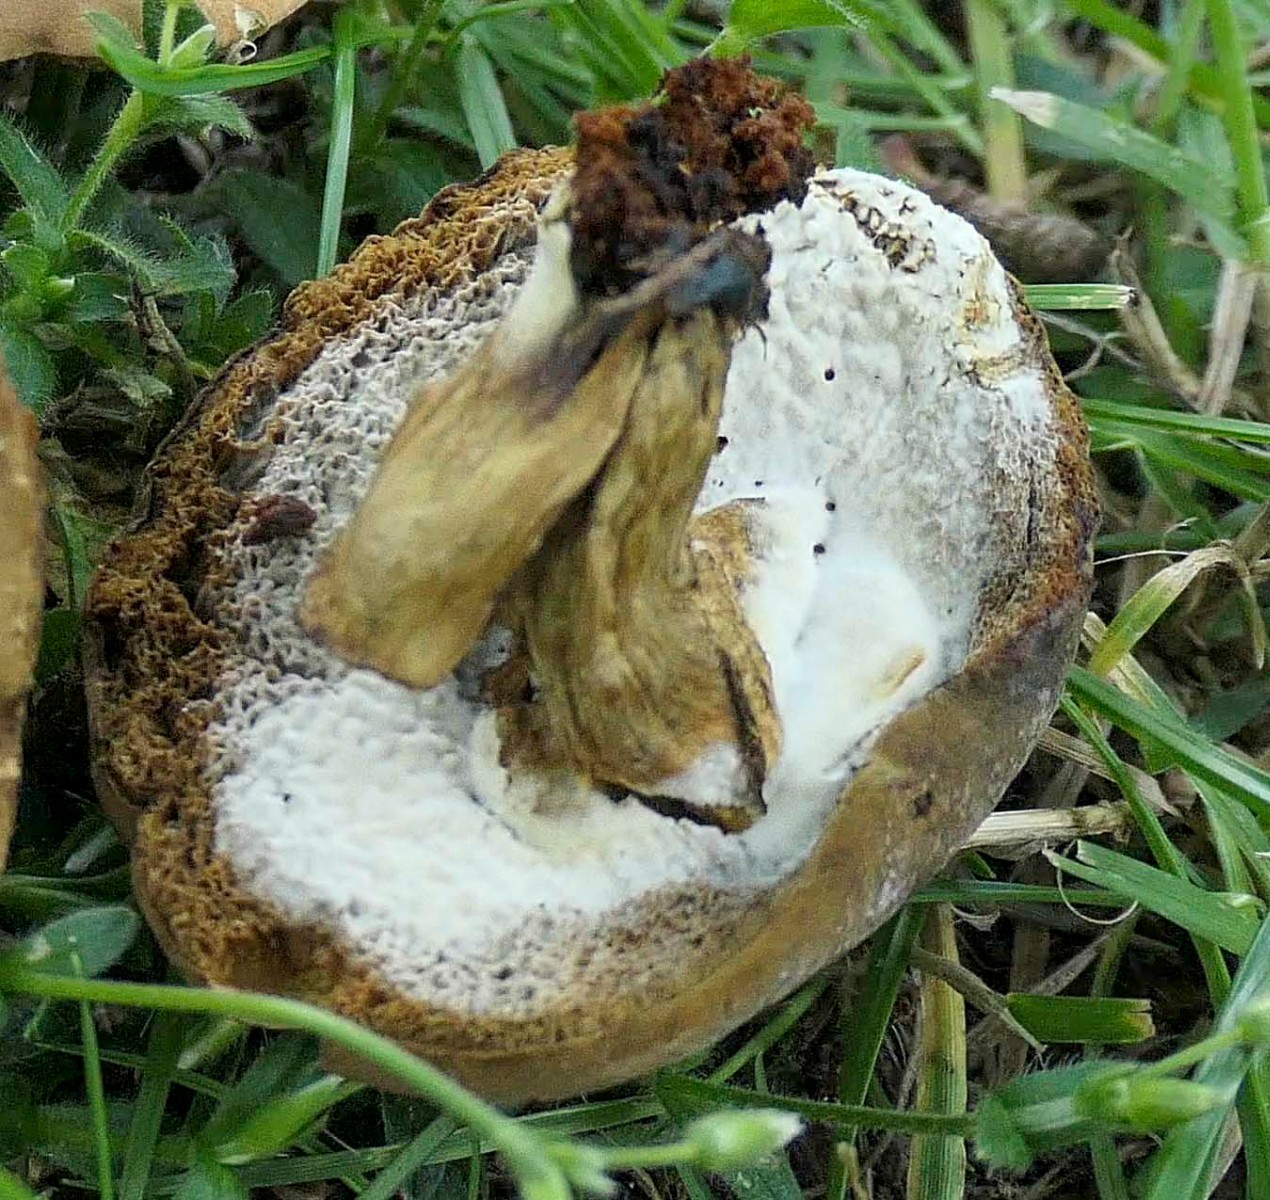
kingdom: Fungi
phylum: Ascomycota
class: Sordariomycetes
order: Hypocreales
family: Hypocreaceae
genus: Hypomyces
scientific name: Hypomyces microspermus
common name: dværgrørhat-snylteskorpe
